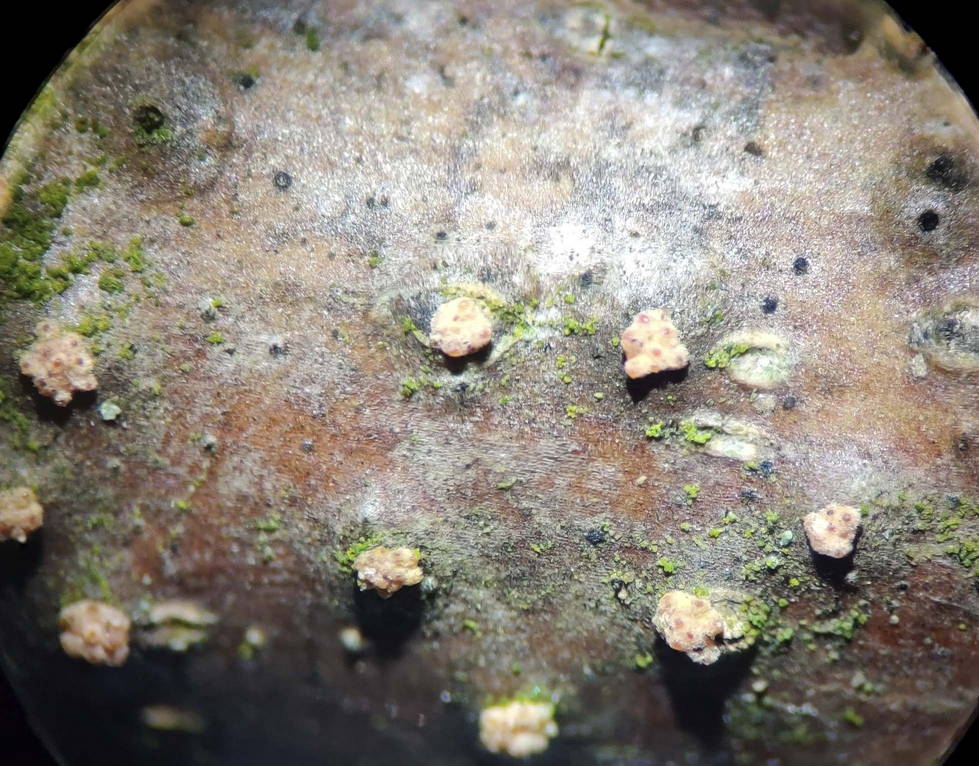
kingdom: Fungi
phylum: Ascomycota
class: Sordariomycetes
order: Hypocreales
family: Flammocladiellaceae
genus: Flammocladiella
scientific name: Flammocladiella decora
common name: kulvulkan-cinnobersvamp
